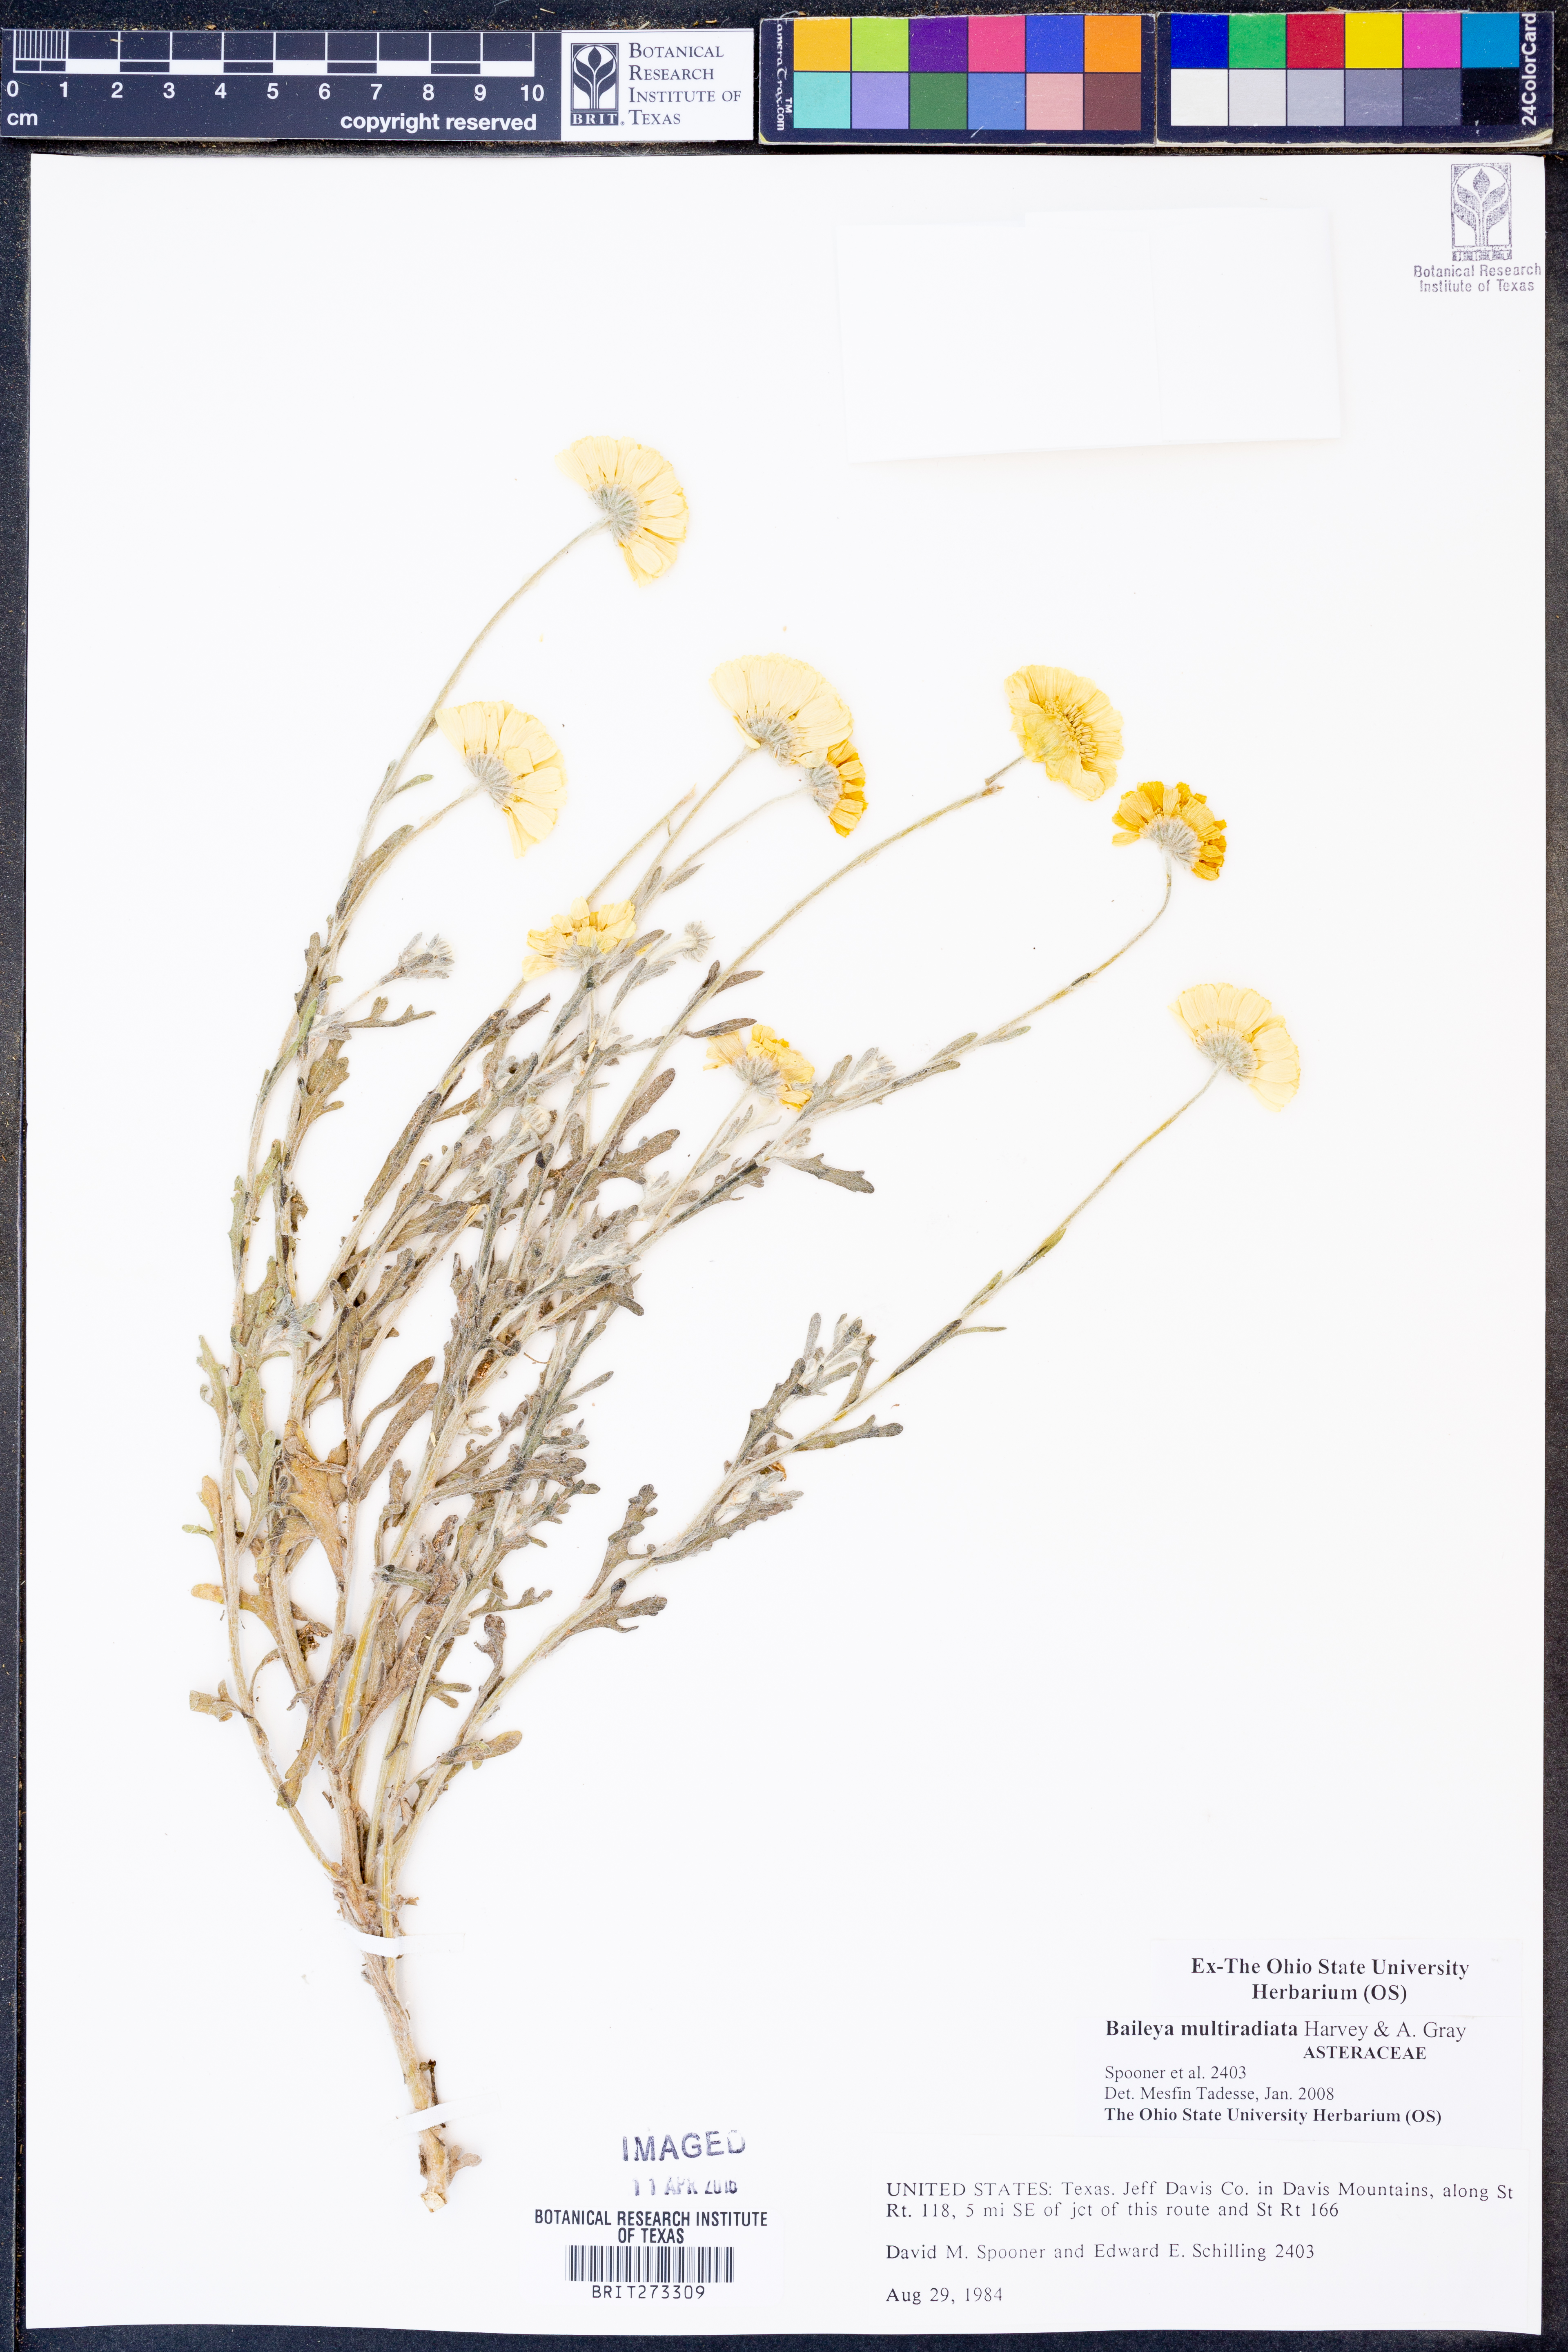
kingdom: Plantae
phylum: Tracheophyta
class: Magnoliopsida
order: Asterales
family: Asteraceae
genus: Baileya
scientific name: Baileya multiradiata
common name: Desert-marigold
